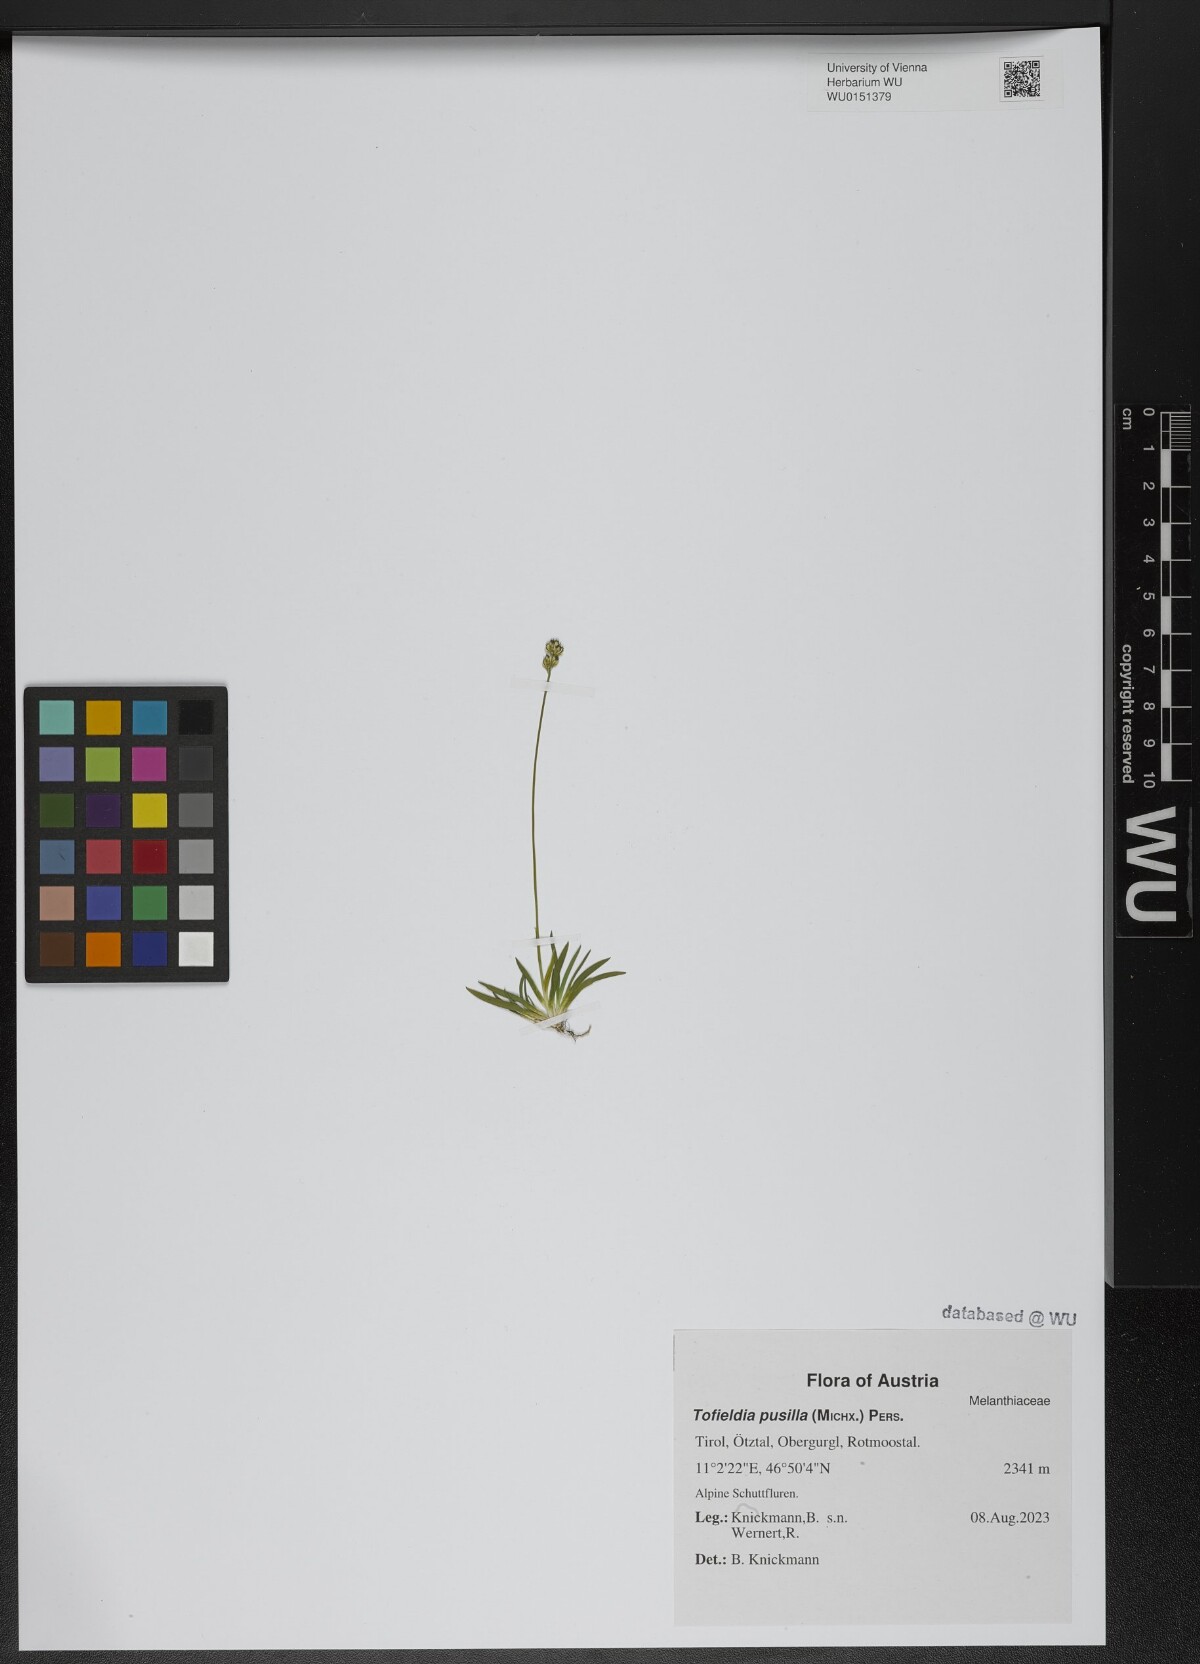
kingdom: Plantae
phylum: Tracheophyta
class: Liliopsida
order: Alismatales
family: Tofieldiaceae
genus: Tofieldia
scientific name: Tofieldia pusilla
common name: Scottish false asphodel
